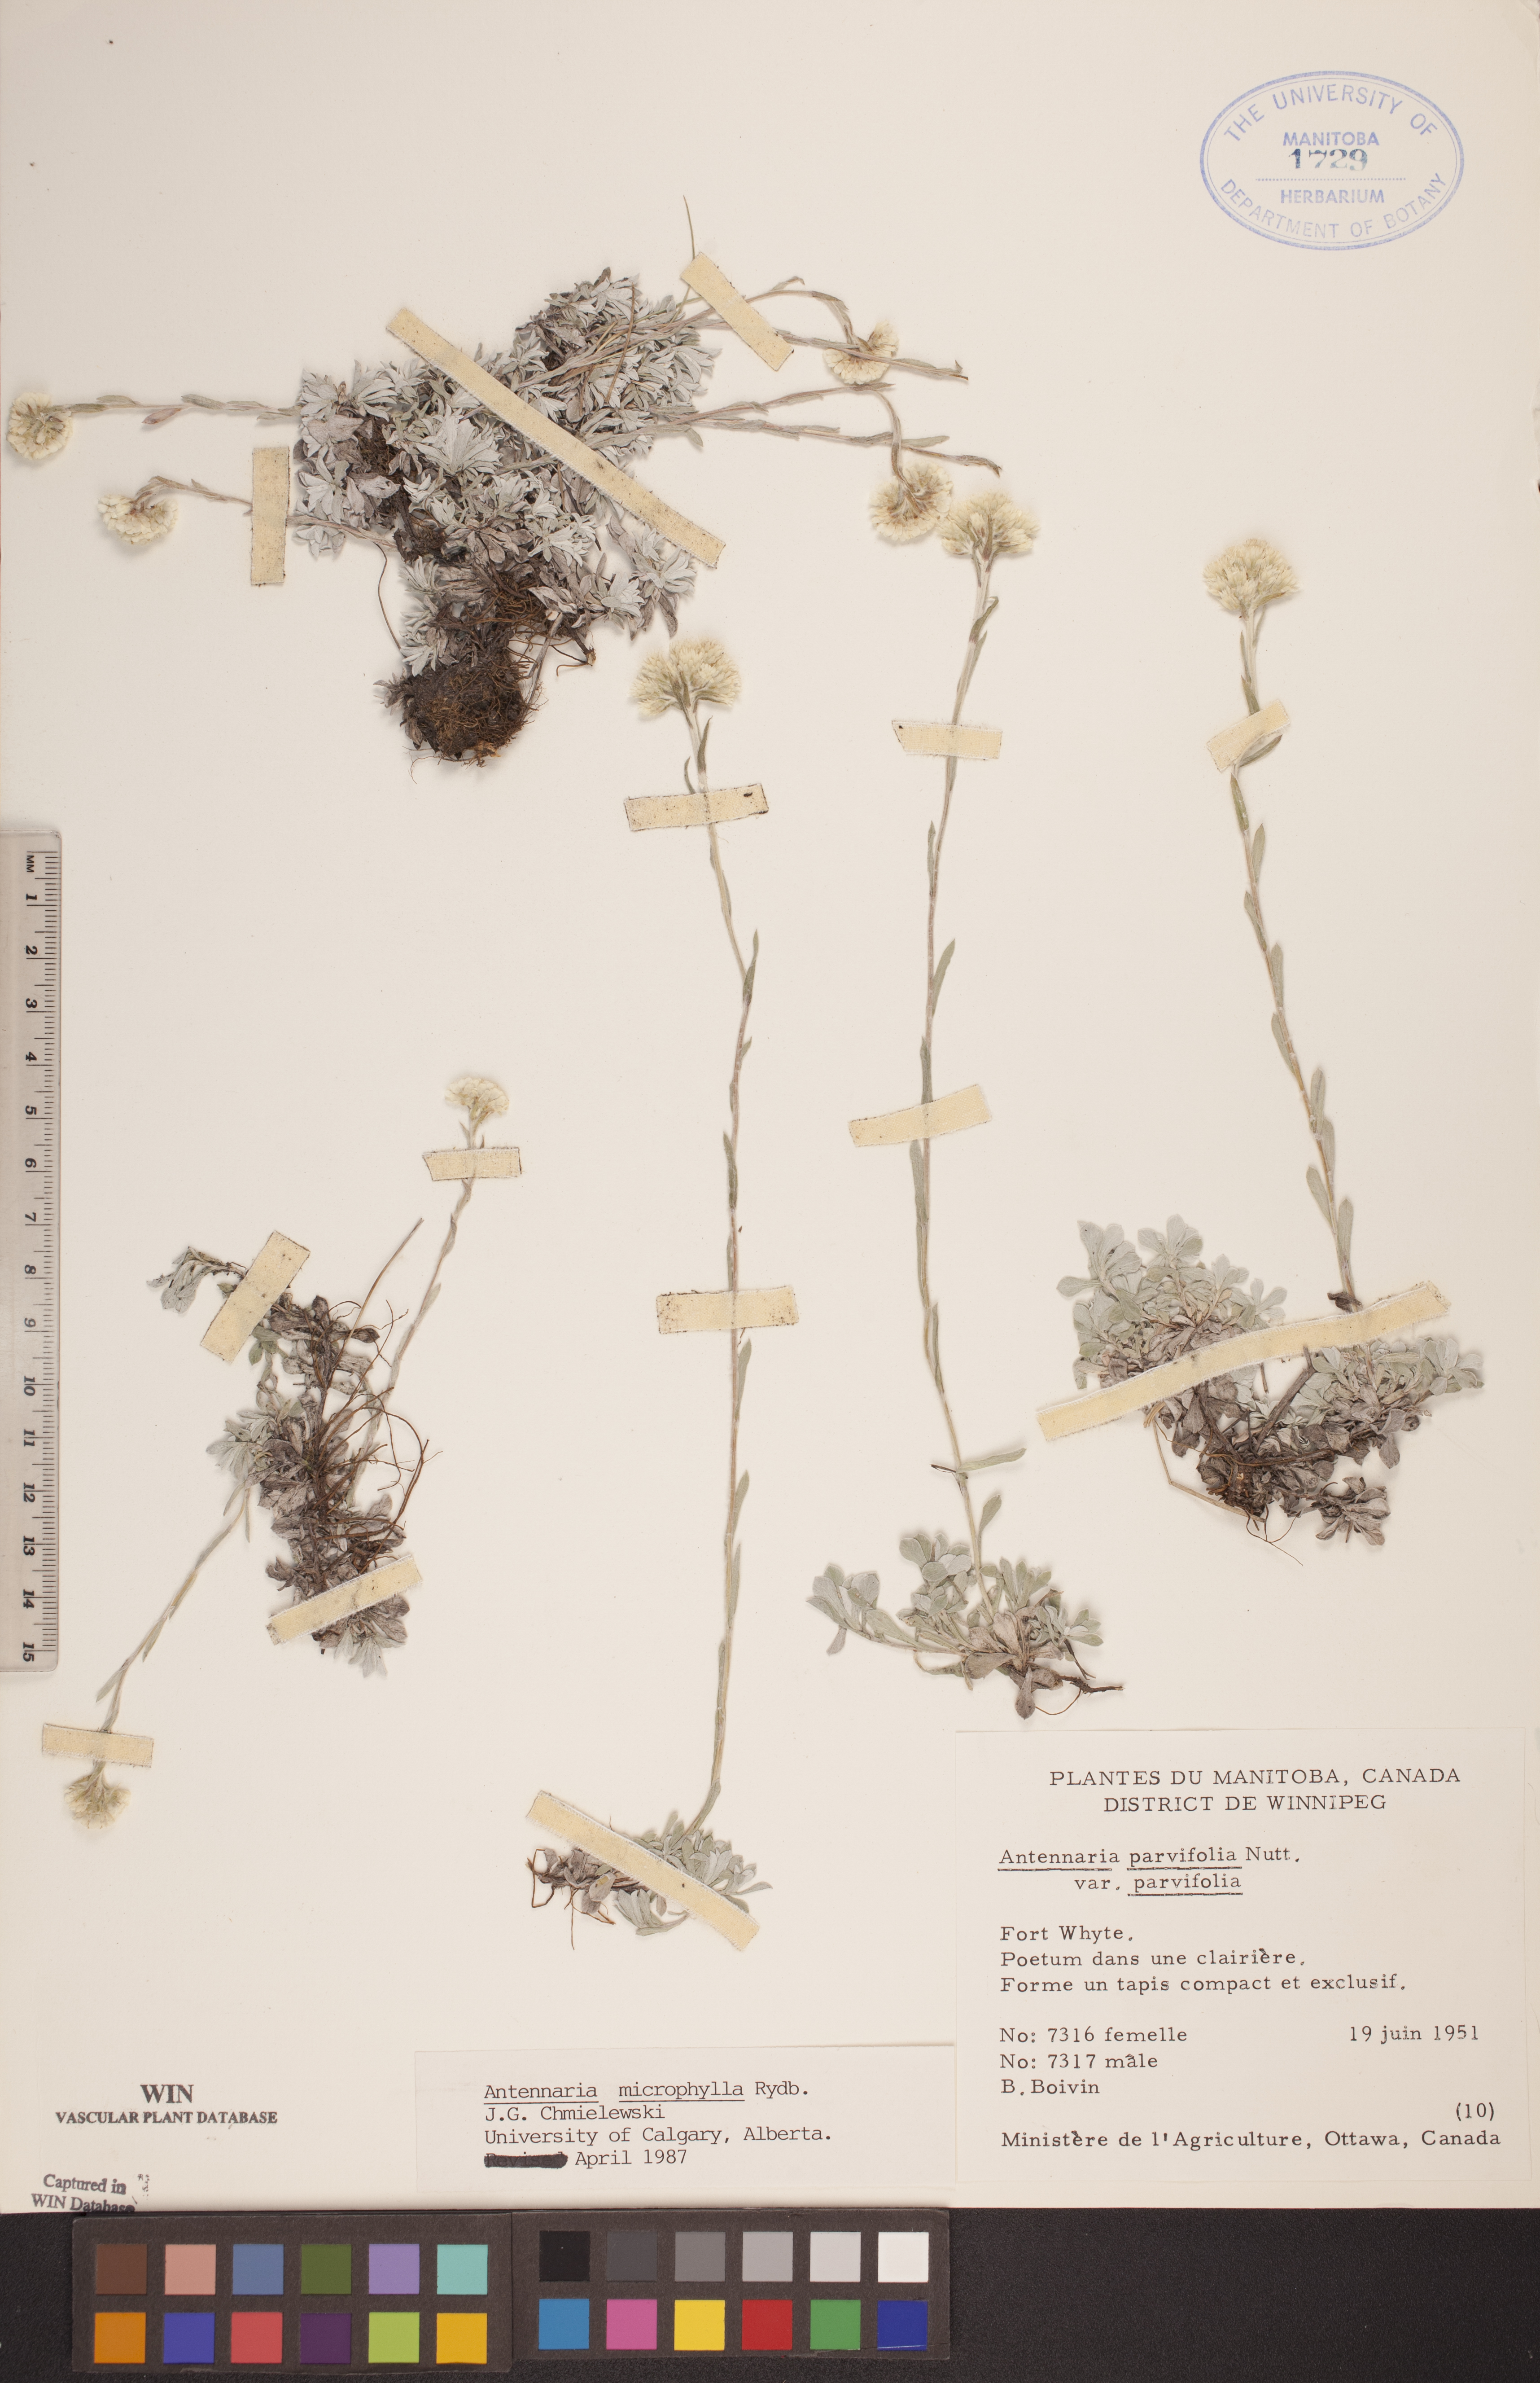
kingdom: Plantae
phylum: Tracheophyta
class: Magnoliopsida
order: Asterales
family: Asteraceae
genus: Antennaria
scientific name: Antennaria microphylla
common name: Littleleaf pussytoes
